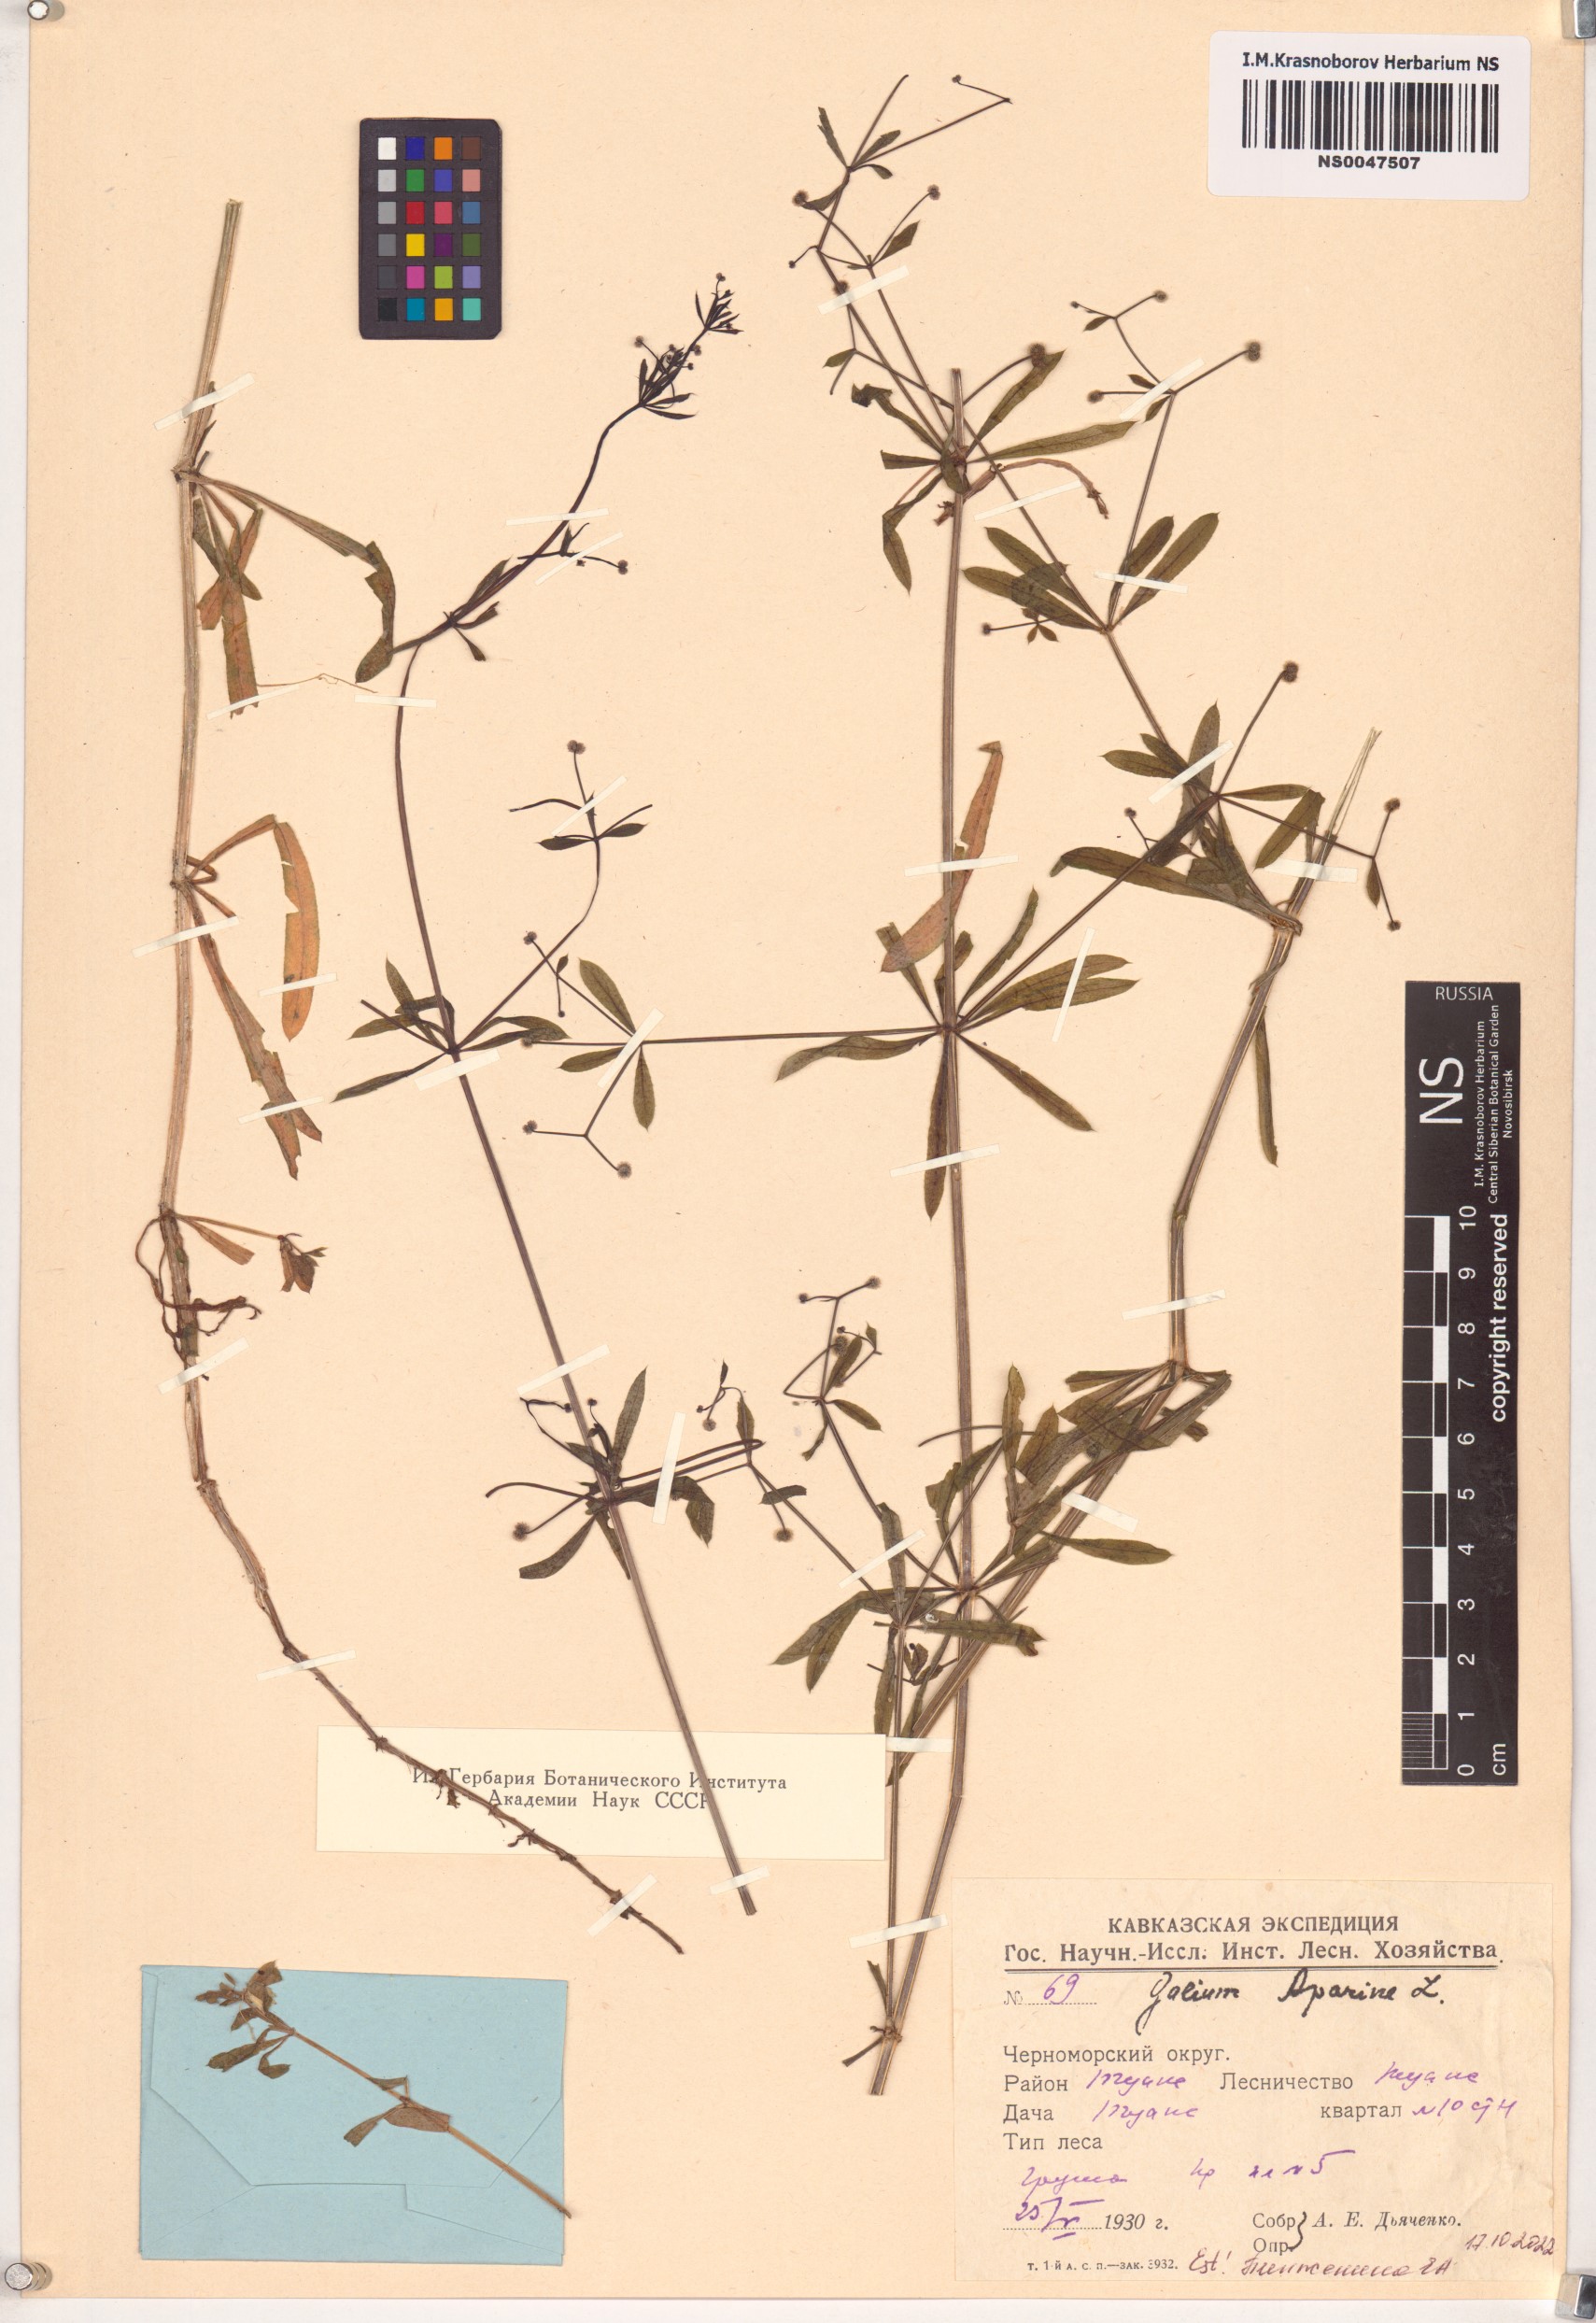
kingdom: Plantae
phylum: Tracheophyta
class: Magnoliopsida
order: Gentianales
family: Rubiaceae
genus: Galium
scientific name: Galium aparine
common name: Cleavers
